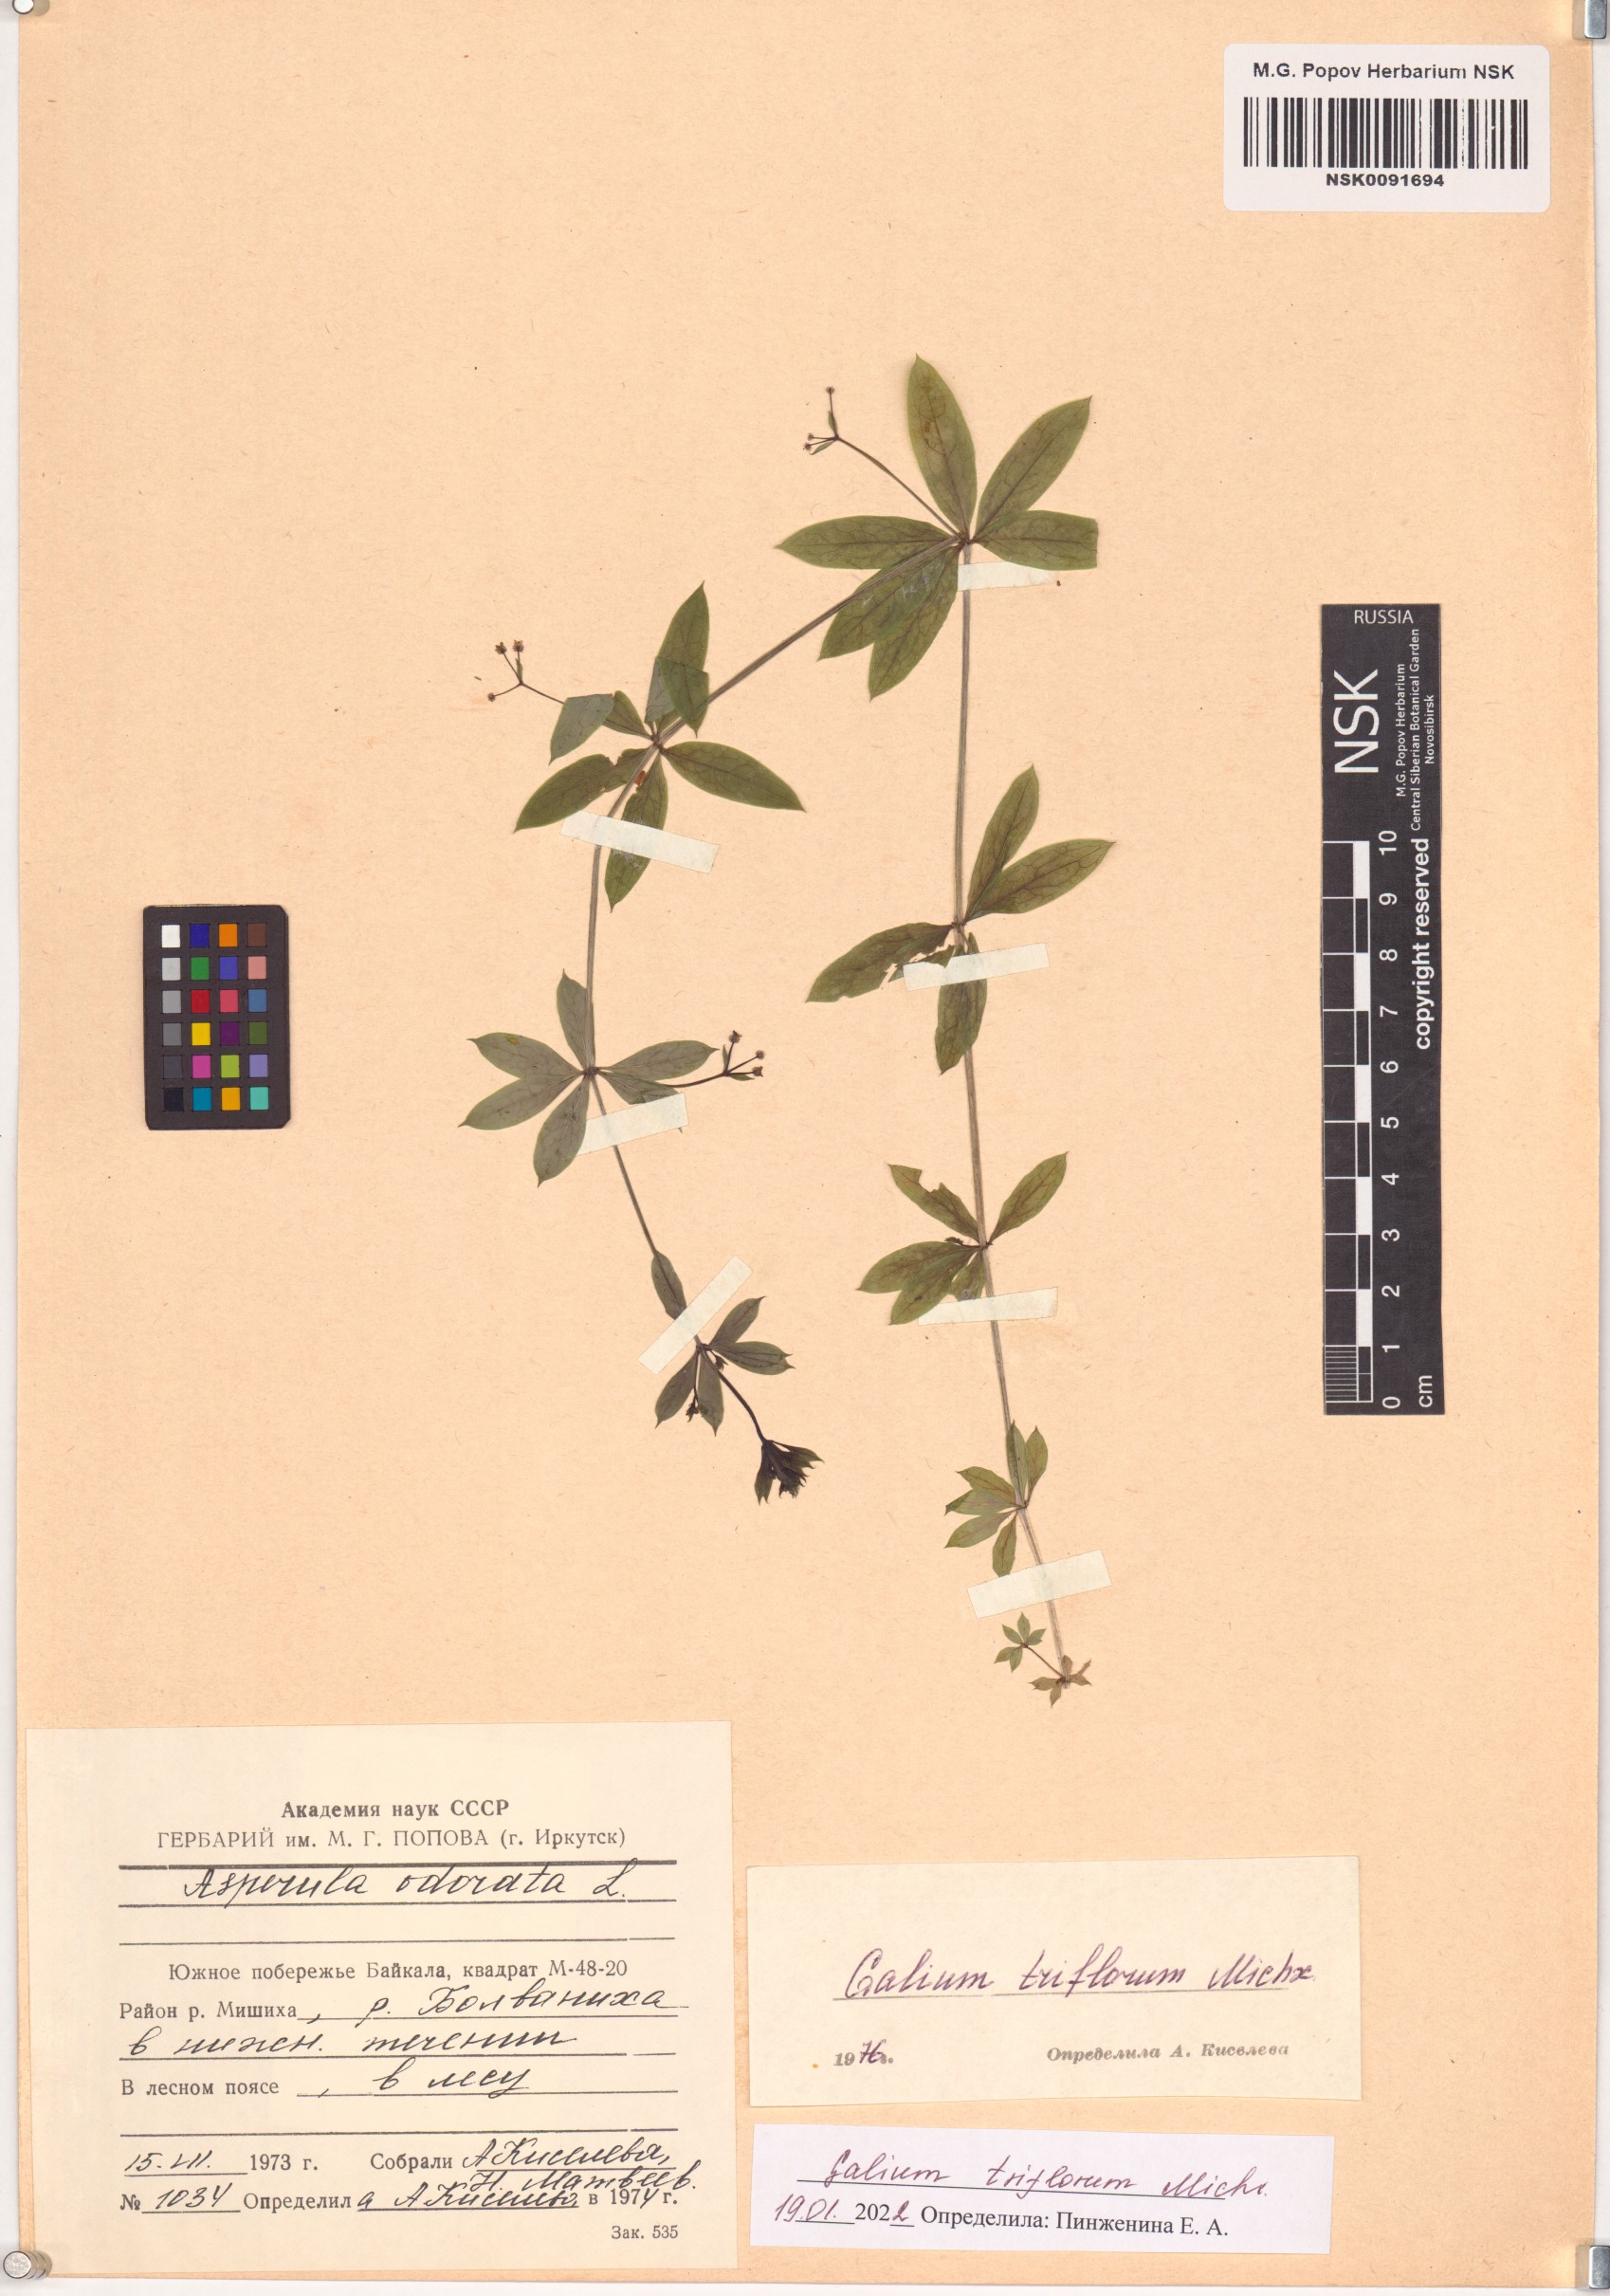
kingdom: Plantae
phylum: Tracheophyta
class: Magnoliopsida
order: Gentianales
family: Rubiaceae
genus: Galium
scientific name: Galium triflorum
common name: Fragrant bedstraw
